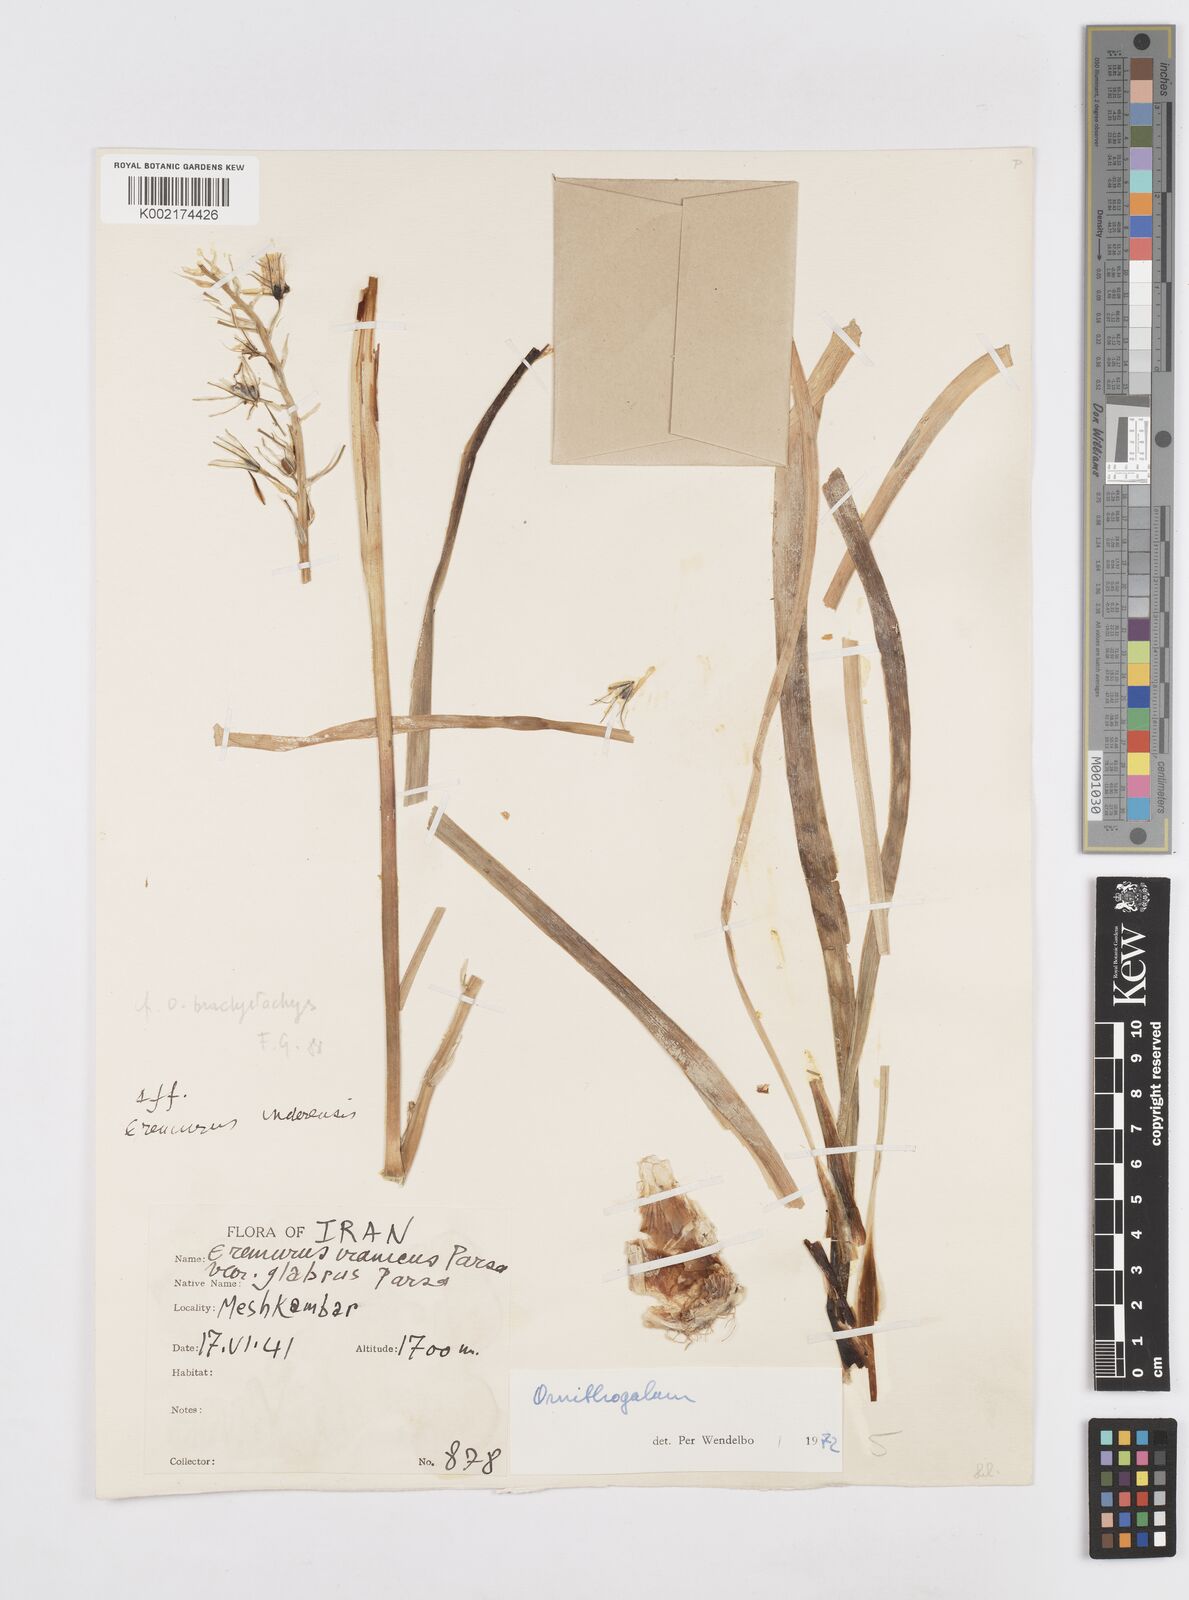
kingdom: Plantae
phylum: Tracheophyta
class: Liliopsida
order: Asparagales
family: Asparagaceae
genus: Ornithogalum
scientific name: Ornithogalum narbonense
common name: Bath-asparagus
